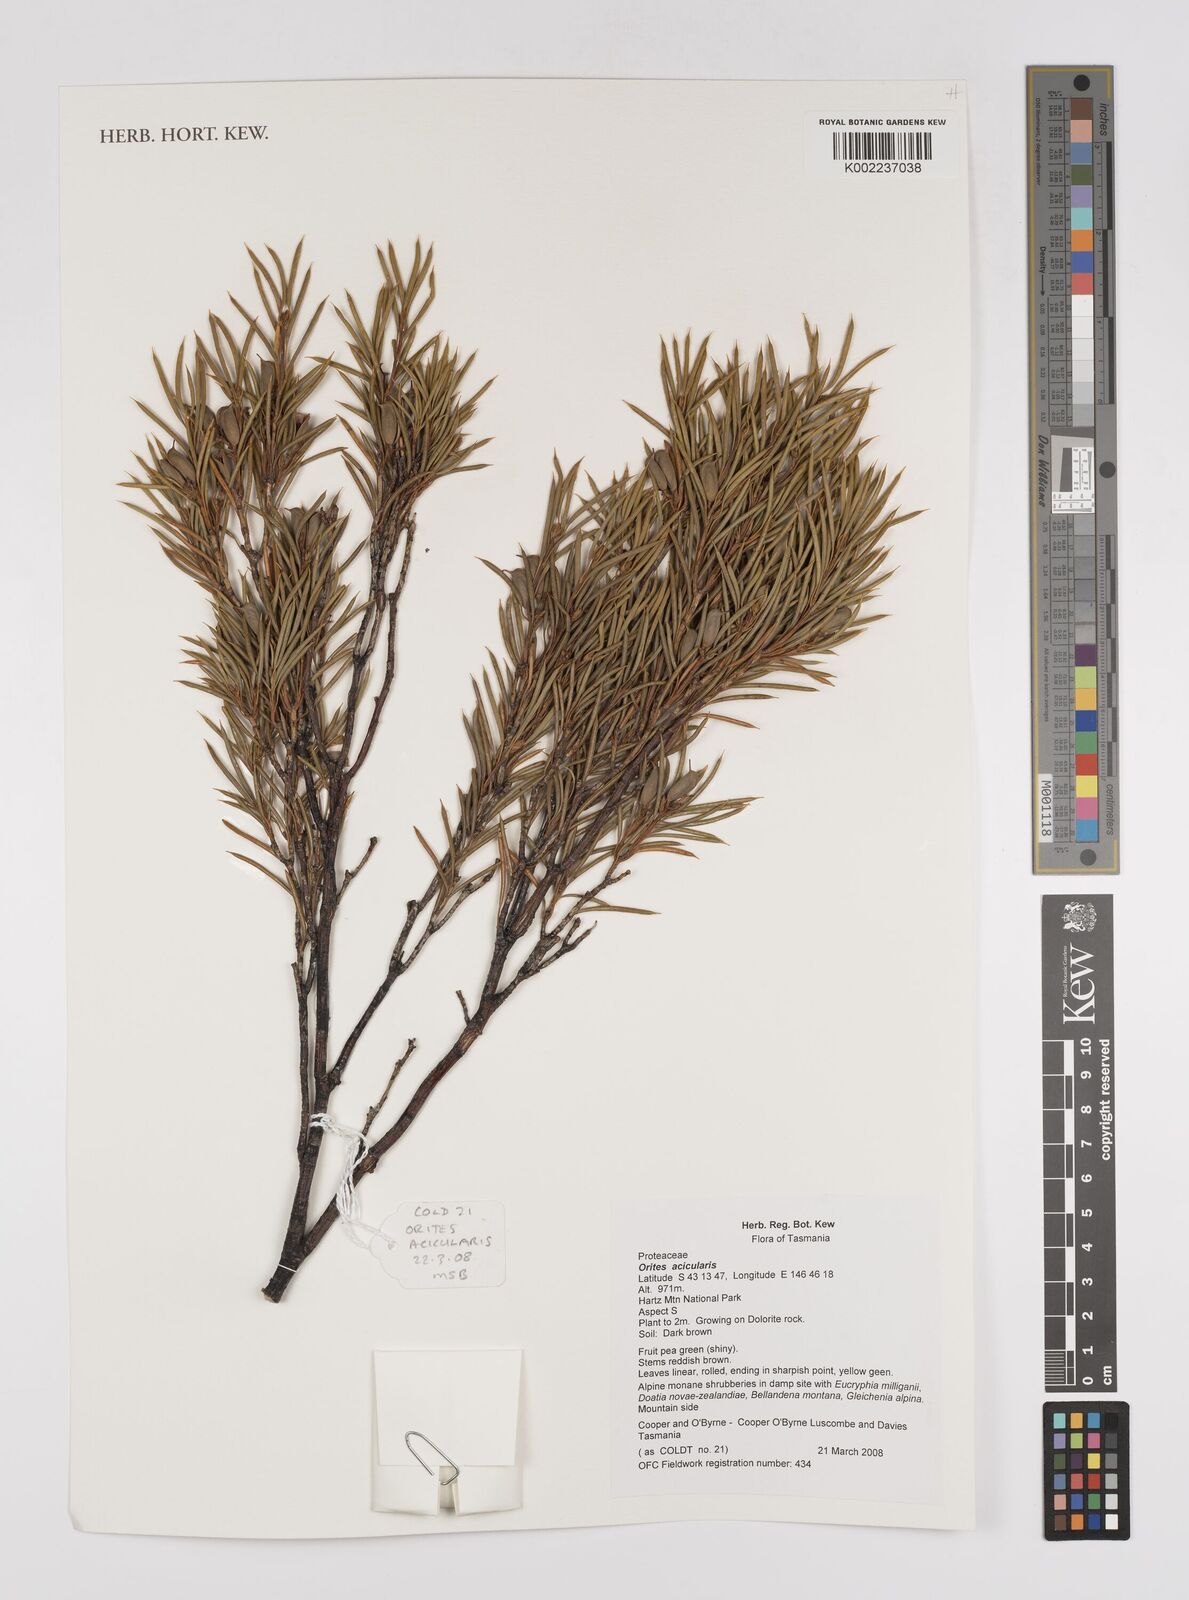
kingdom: Plantae
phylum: Tracheophyta
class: Magnoliopsida
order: Proteales
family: Proteaceae
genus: Orites
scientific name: Orites acicularis
